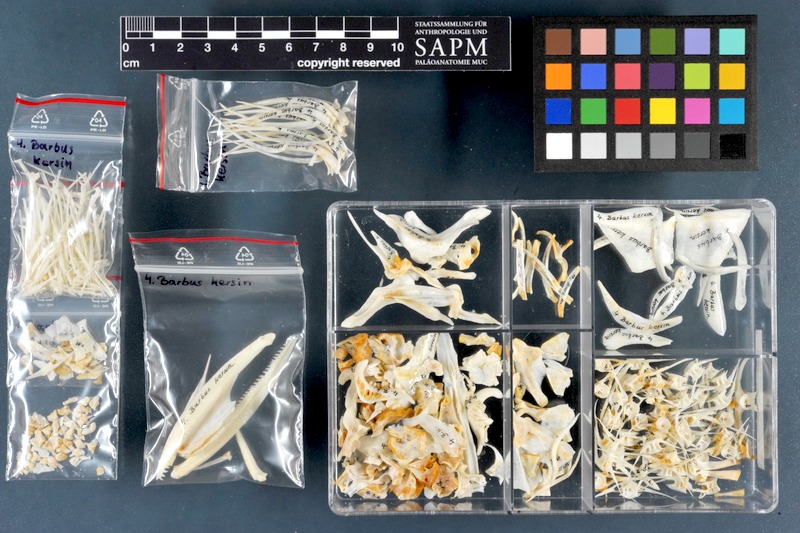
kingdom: Animalia
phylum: Chordata
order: Cypriniformes
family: Cyprinidae
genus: Luciobarbus
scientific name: Luciobarbus kersin
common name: Berzem
